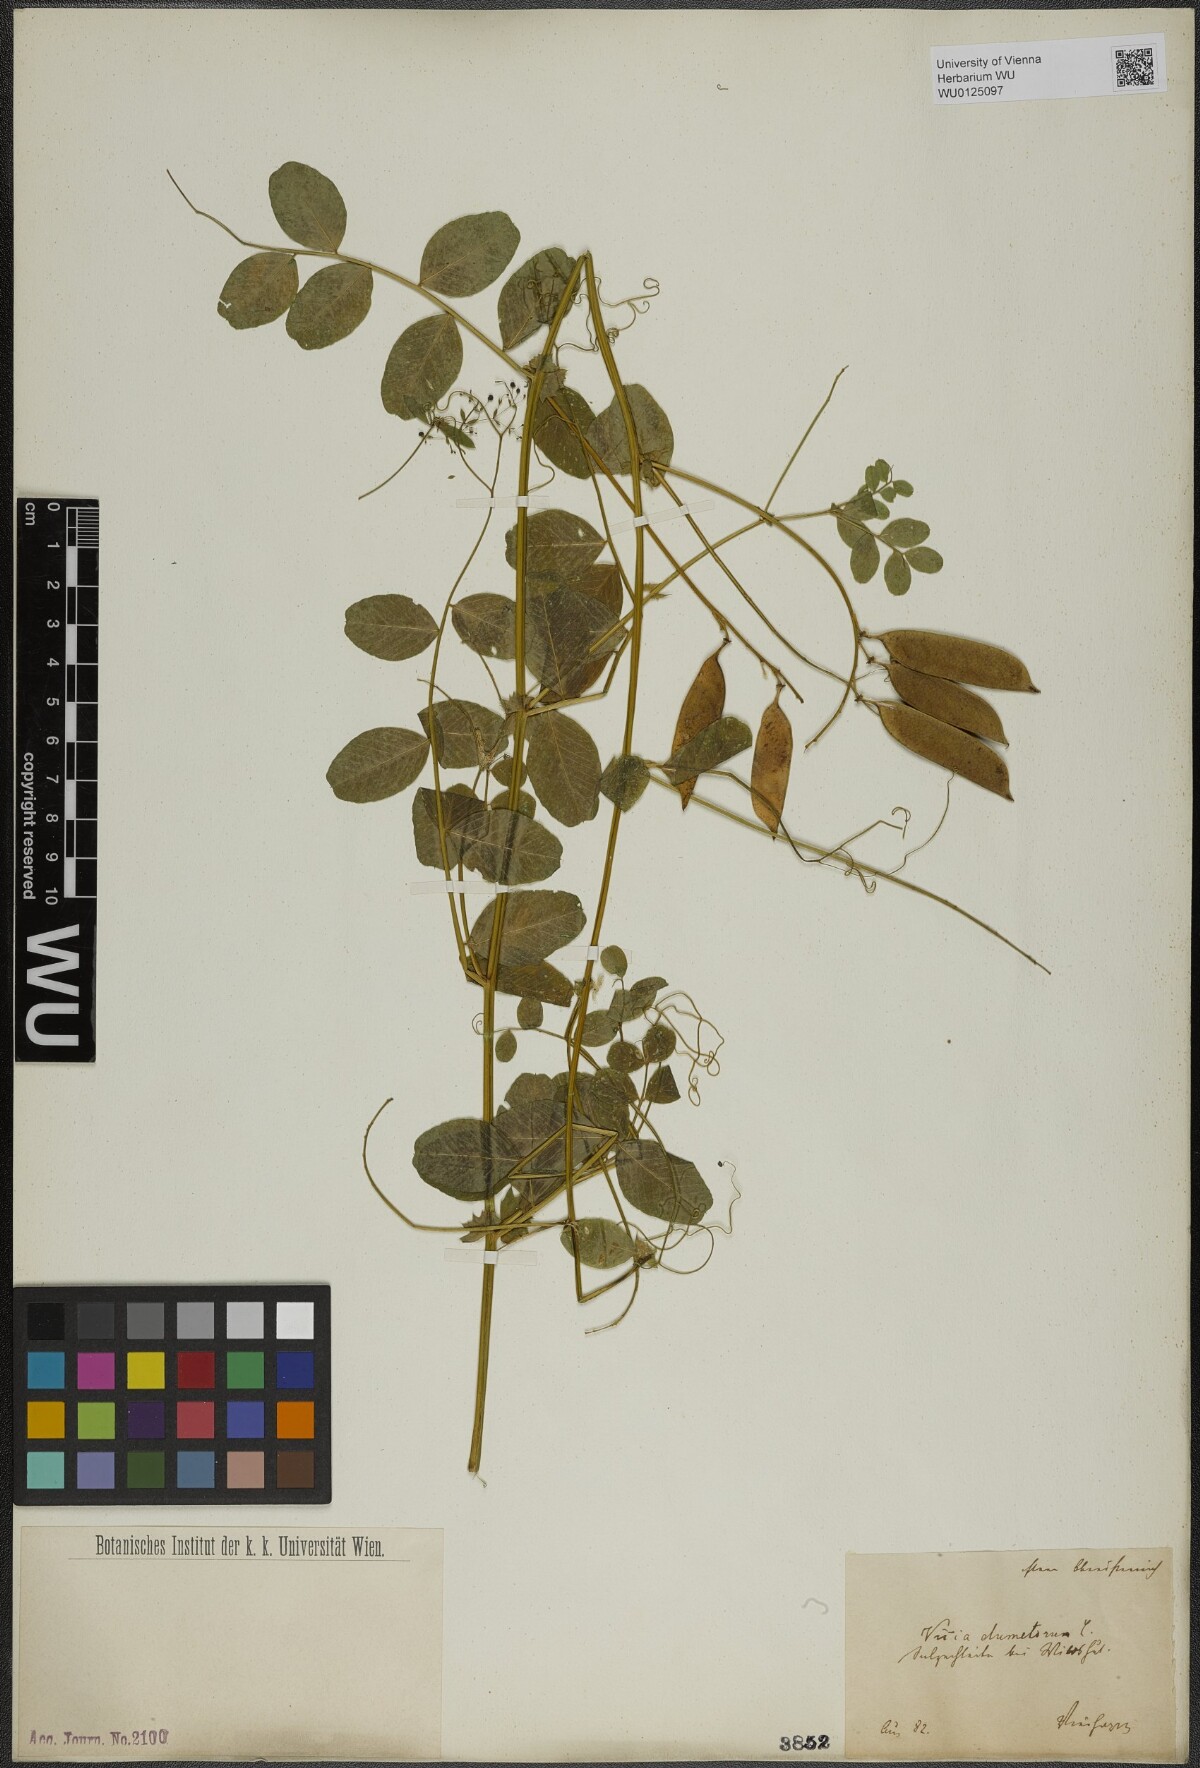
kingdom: Plantae
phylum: Tracheophyta
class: Magnoliopsida
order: Fabales
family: Fabaceae
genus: Vicia
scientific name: Vicia dumetorum
